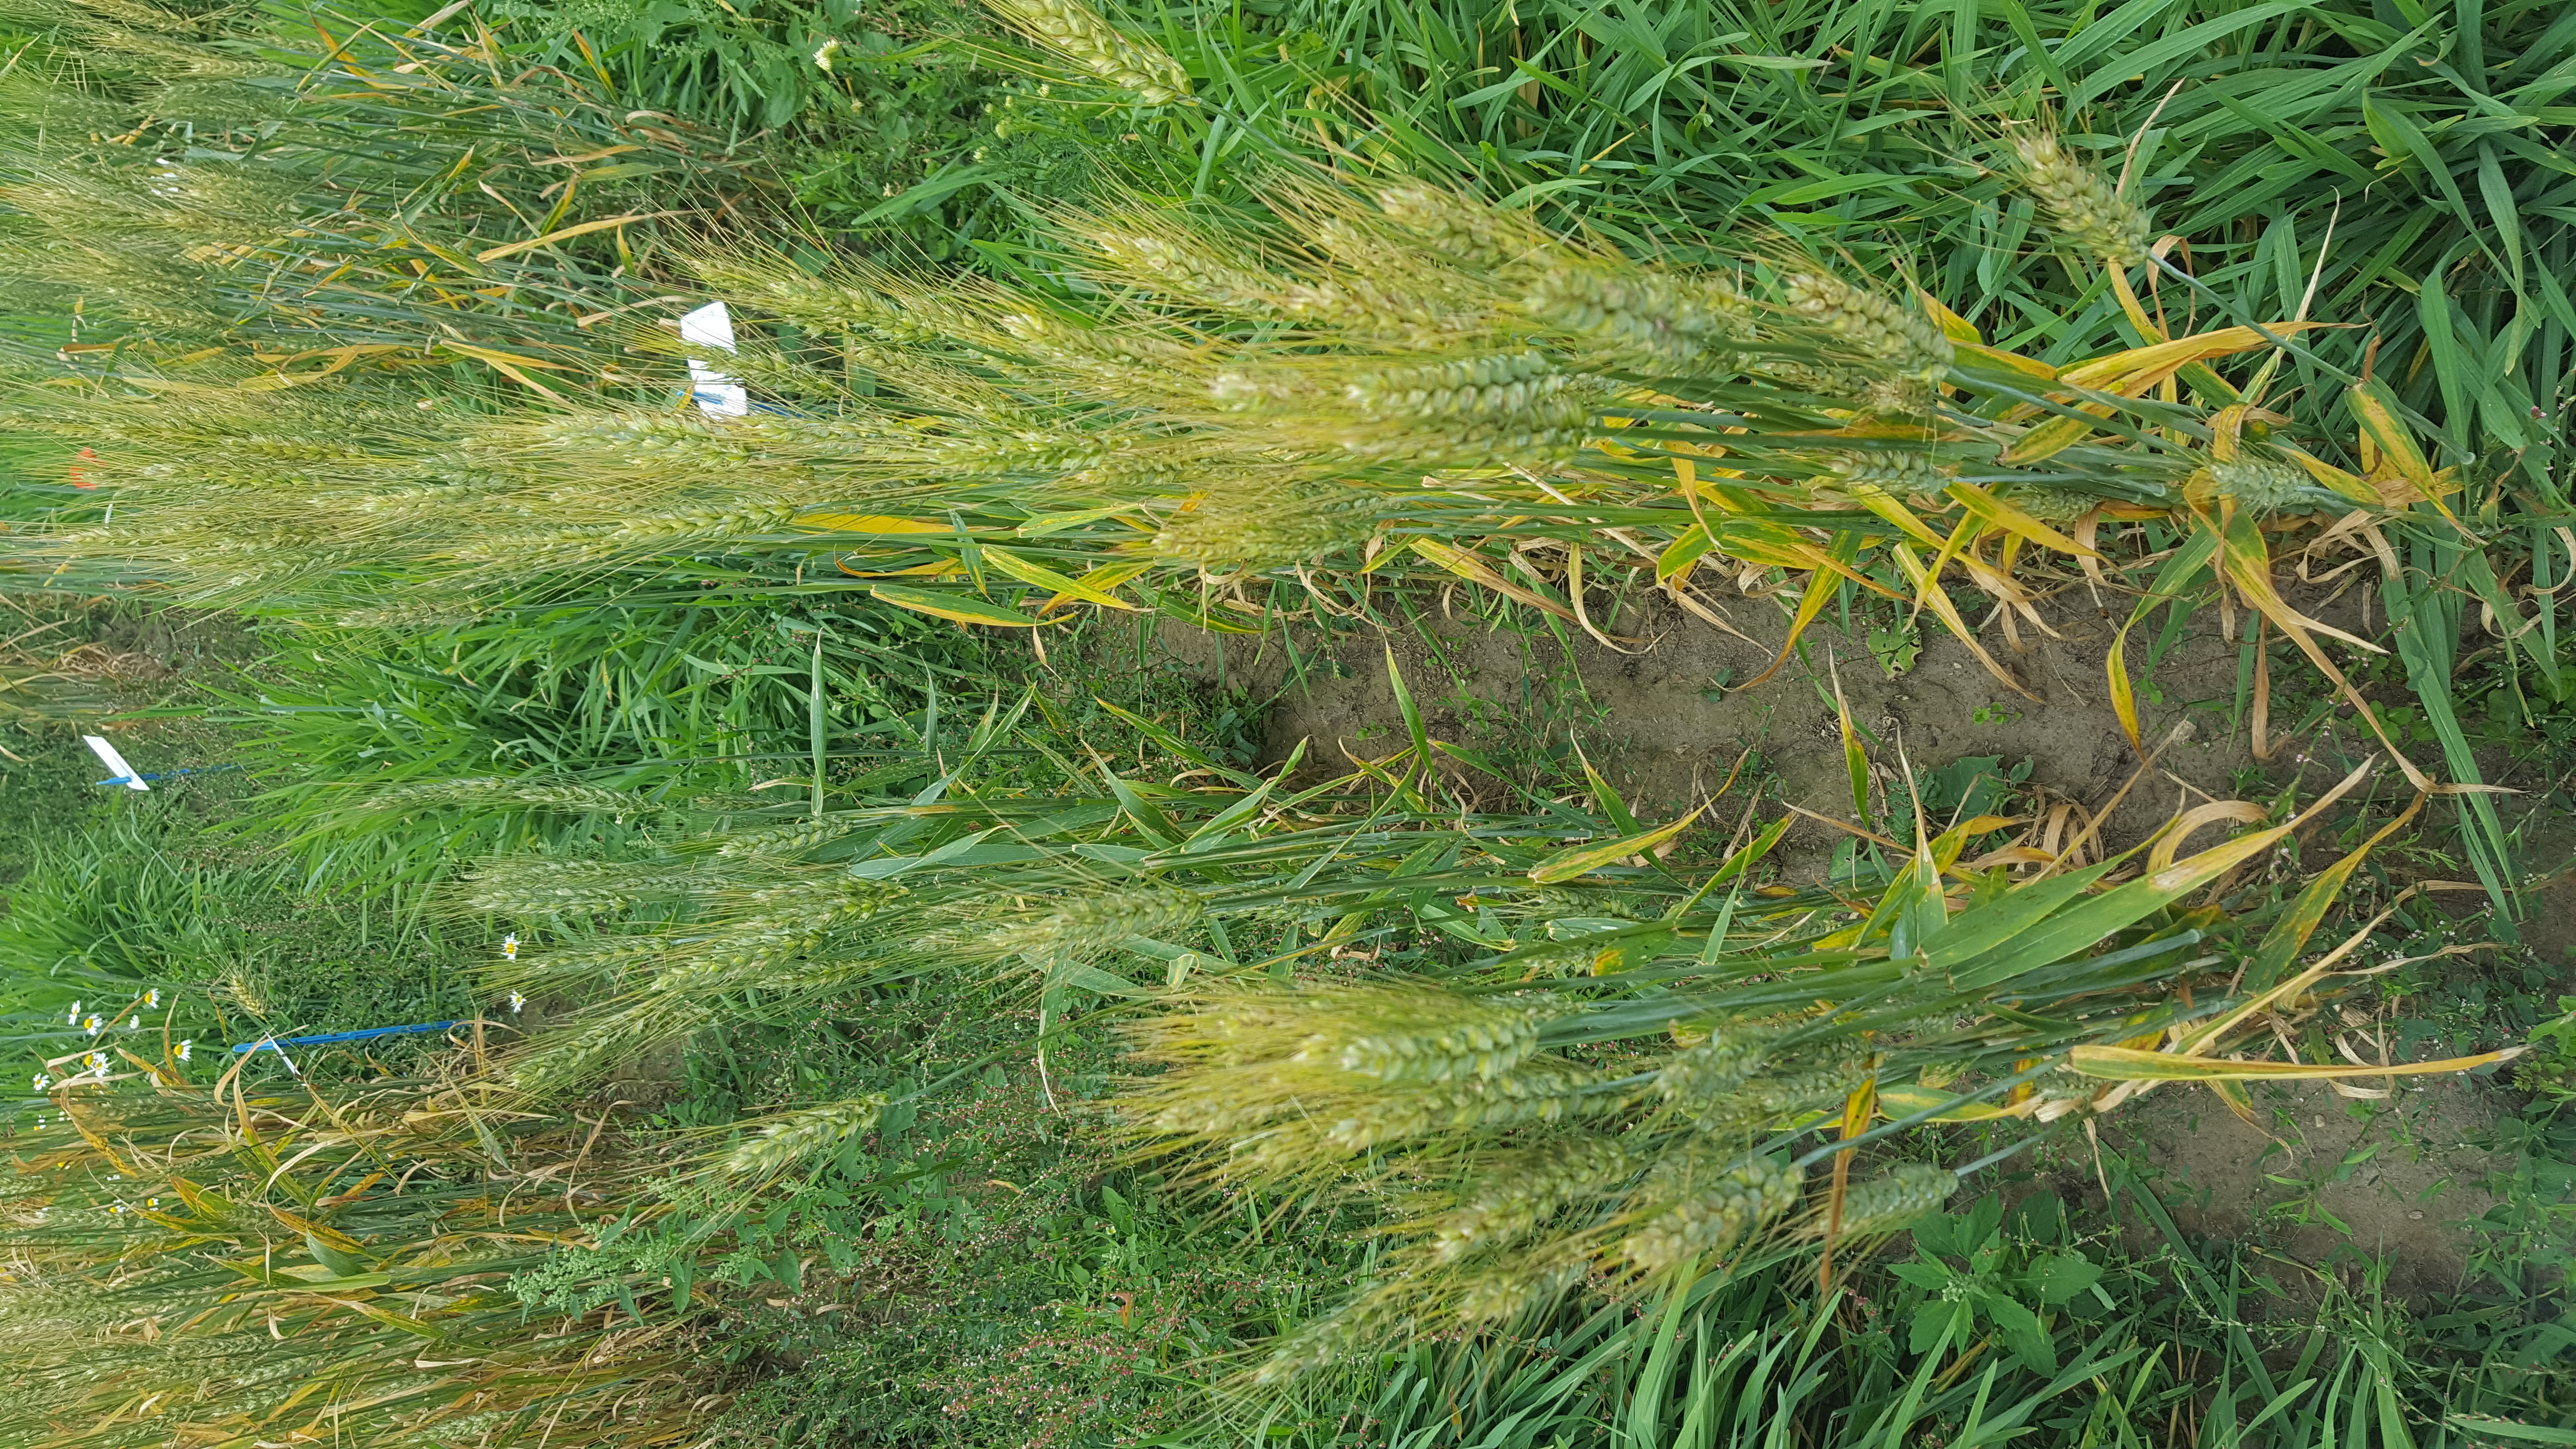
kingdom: Plantae
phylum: Tracheophyta
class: Liliopsida
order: Poales
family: Poaceae
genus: Triticum
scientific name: Triticum aestivum
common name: Common wheat
